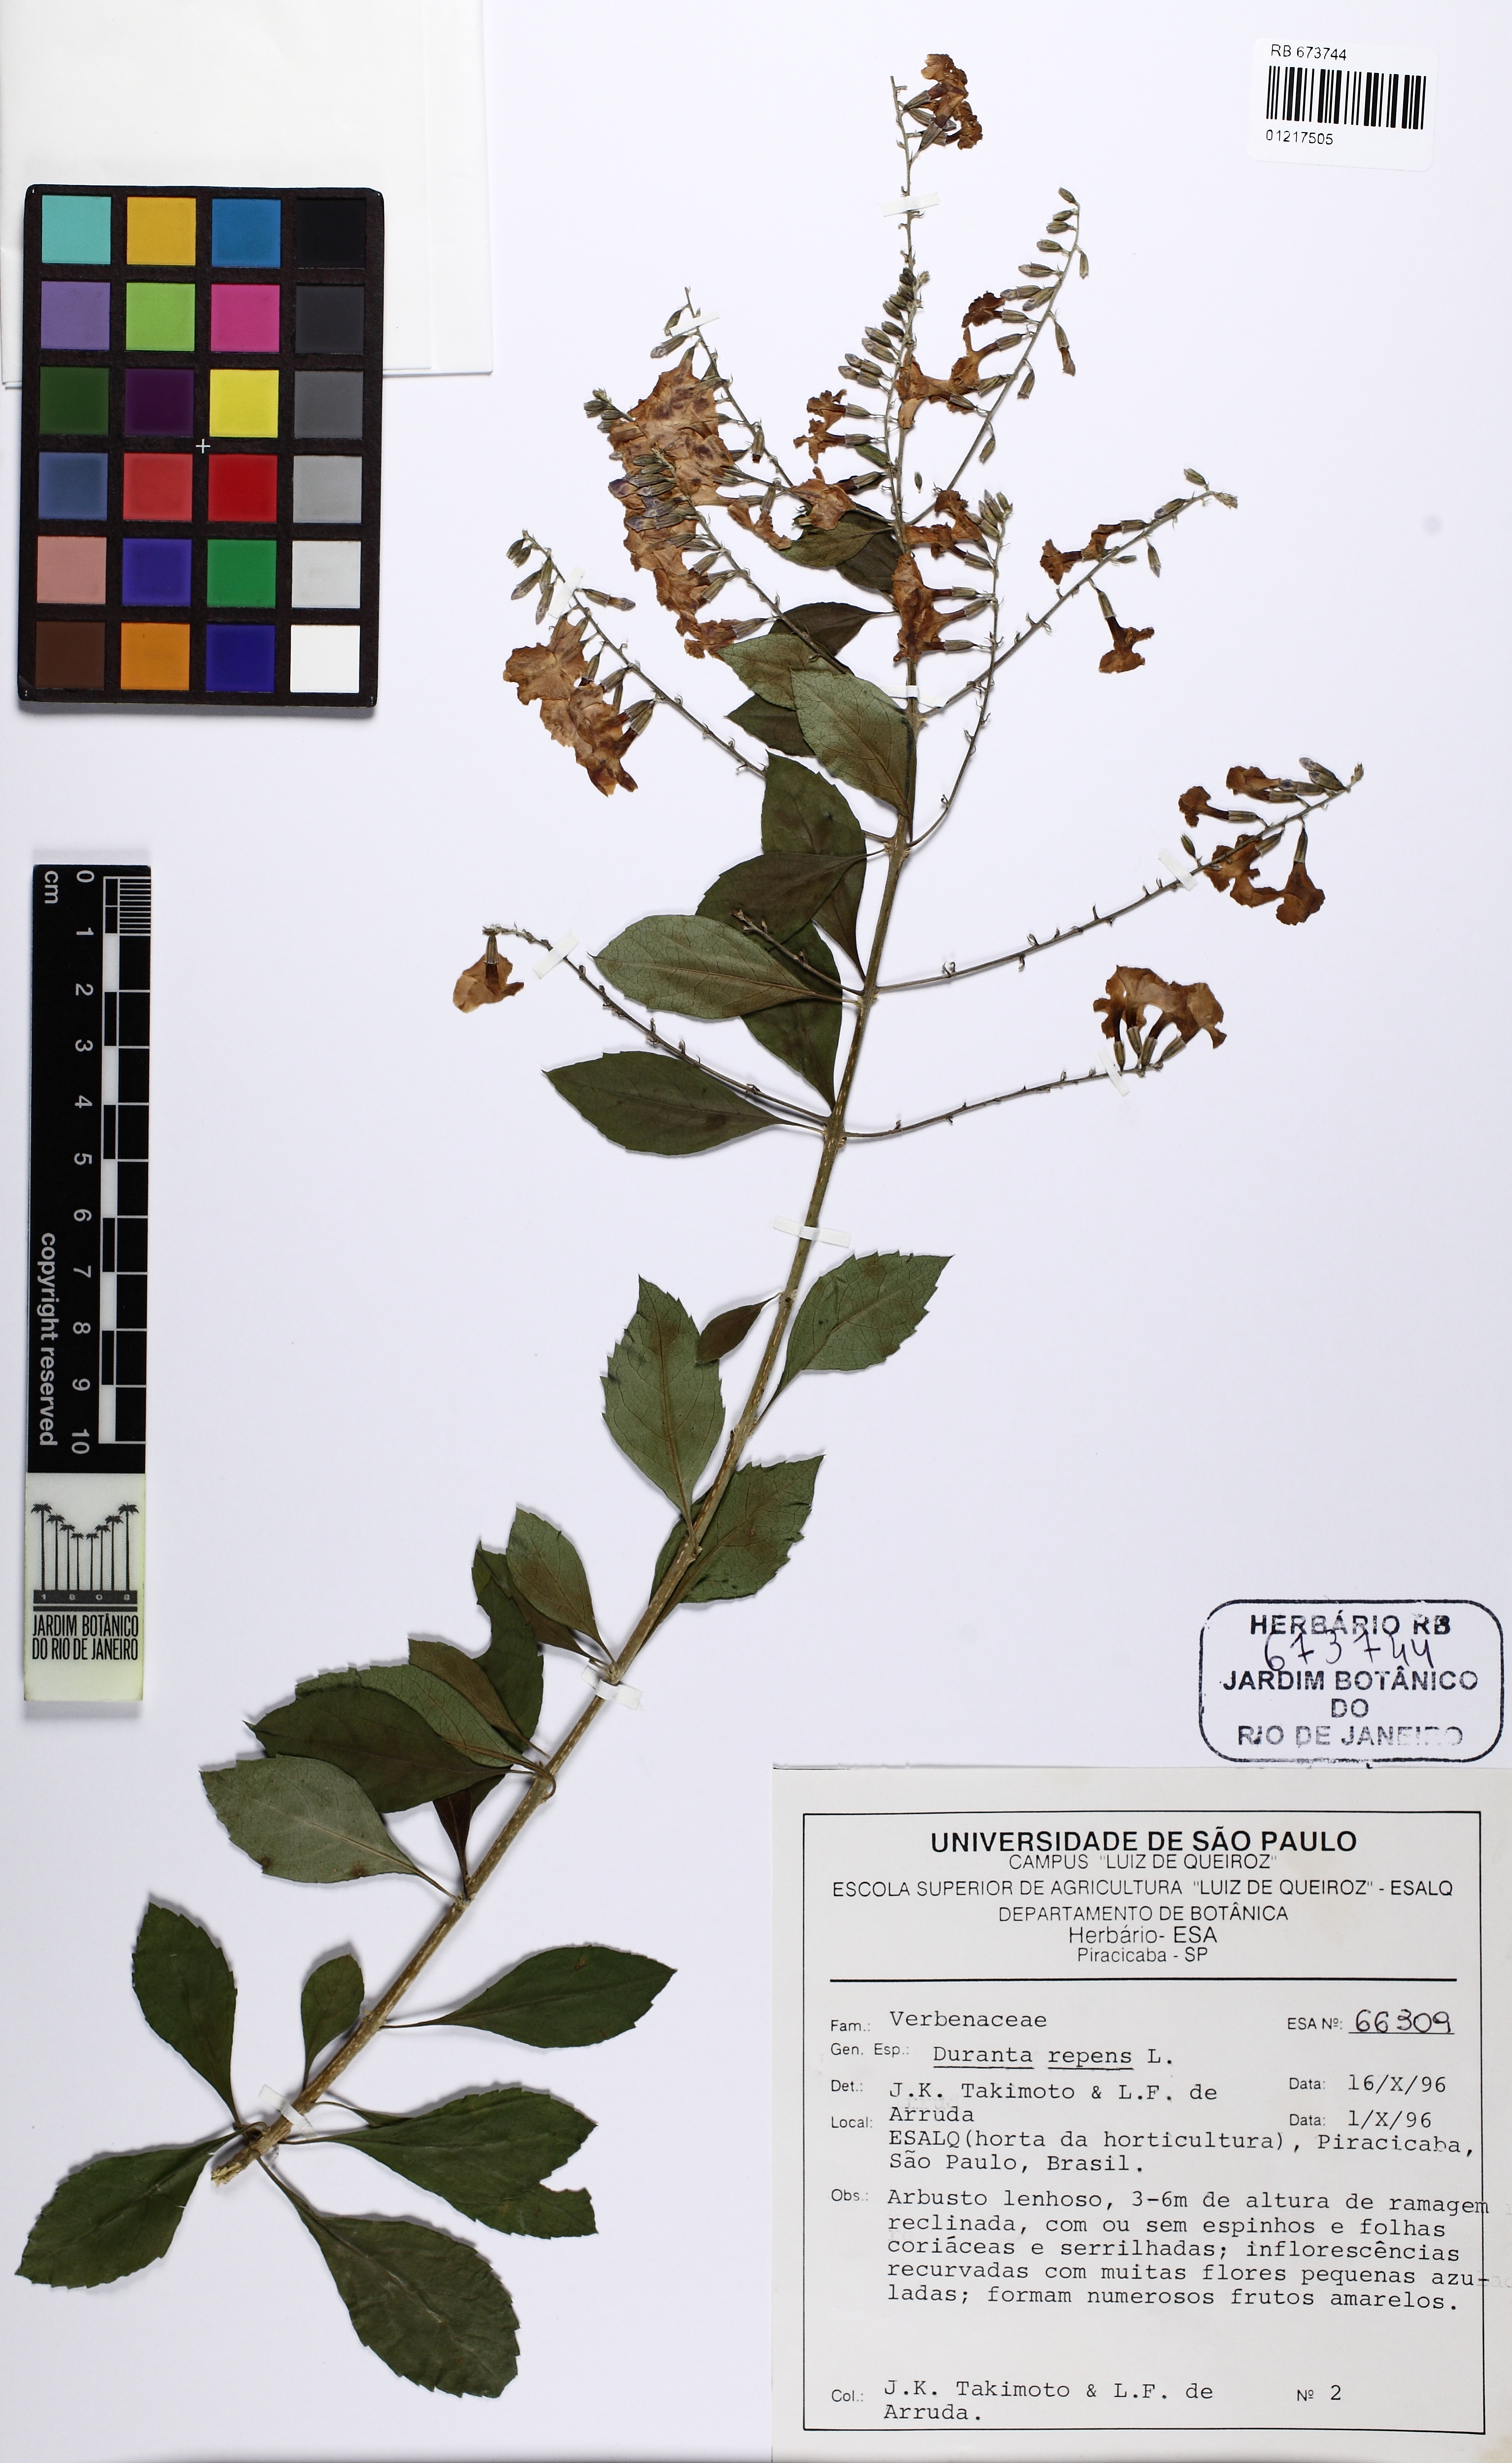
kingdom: Plantae
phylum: Tracheophyta
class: Magnoliopsida
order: Lamiales
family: Verbenaceae
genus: Duranta
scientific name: Duranta erecta
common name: Golden dewdrops
